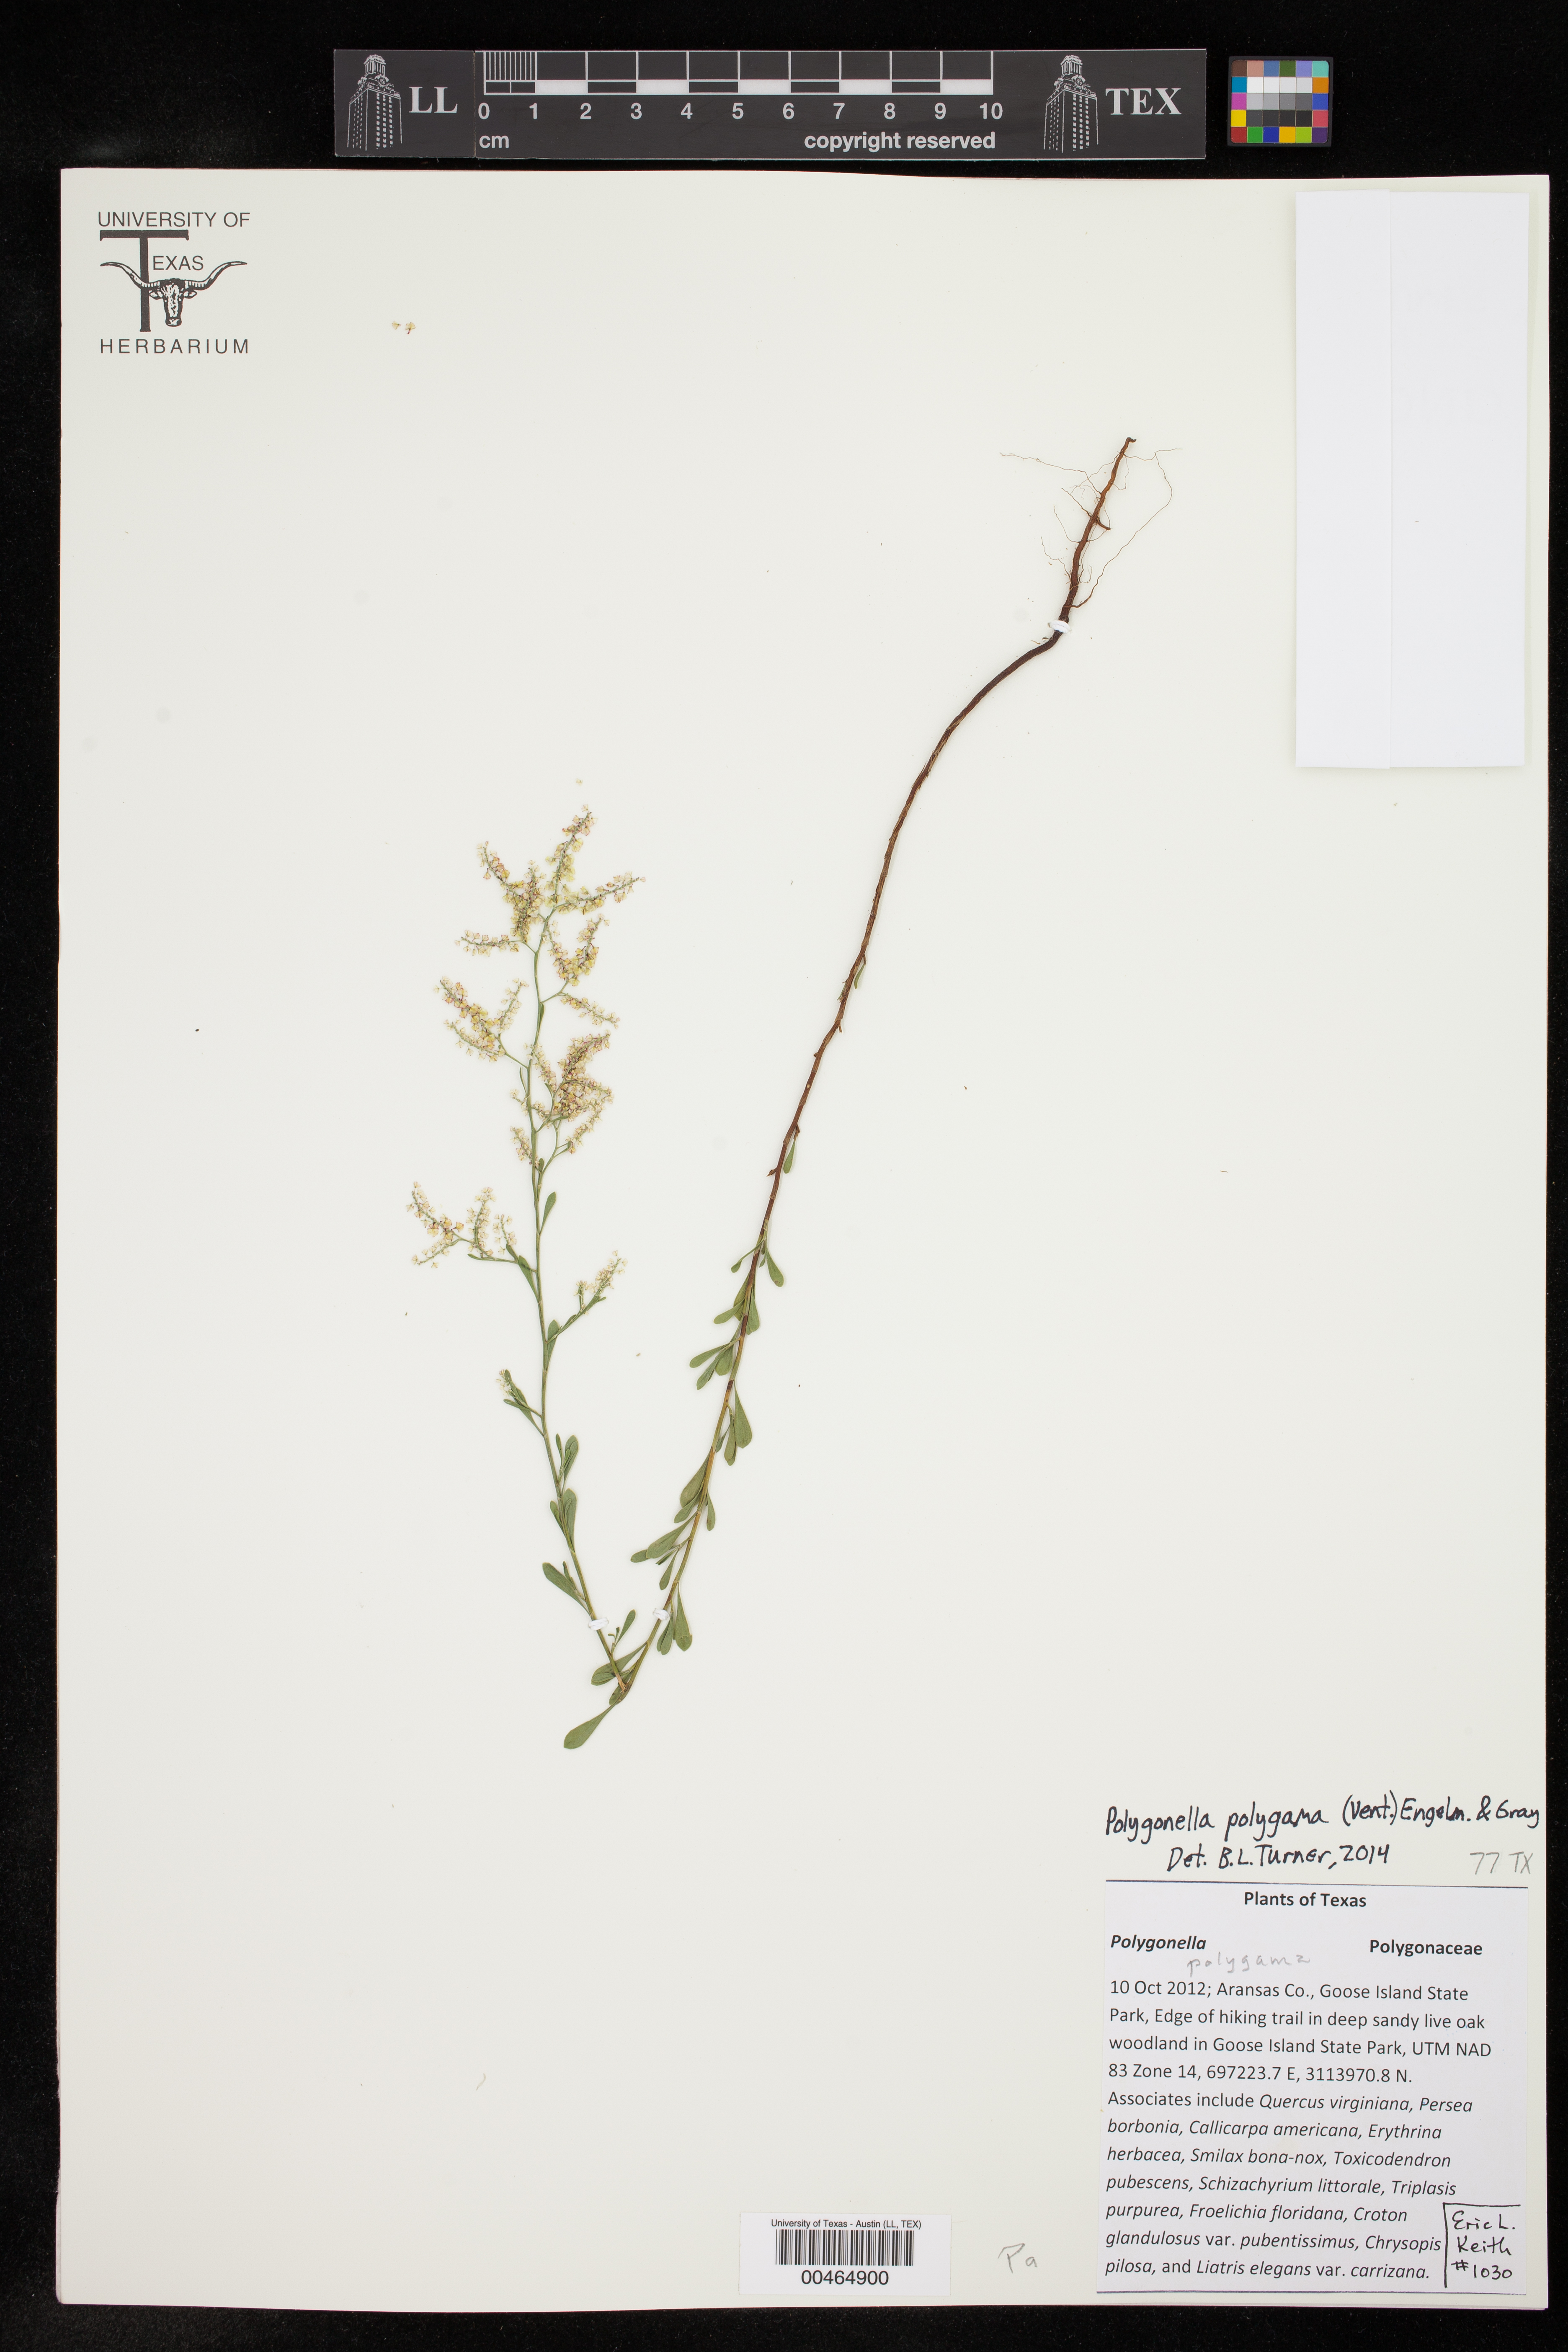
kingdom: Plantae
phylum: Tracheophyta
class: Magnoliopsida
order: Caryophyllales
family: Polygonaceae
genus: Polygonella
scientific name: Polygonella polygama
